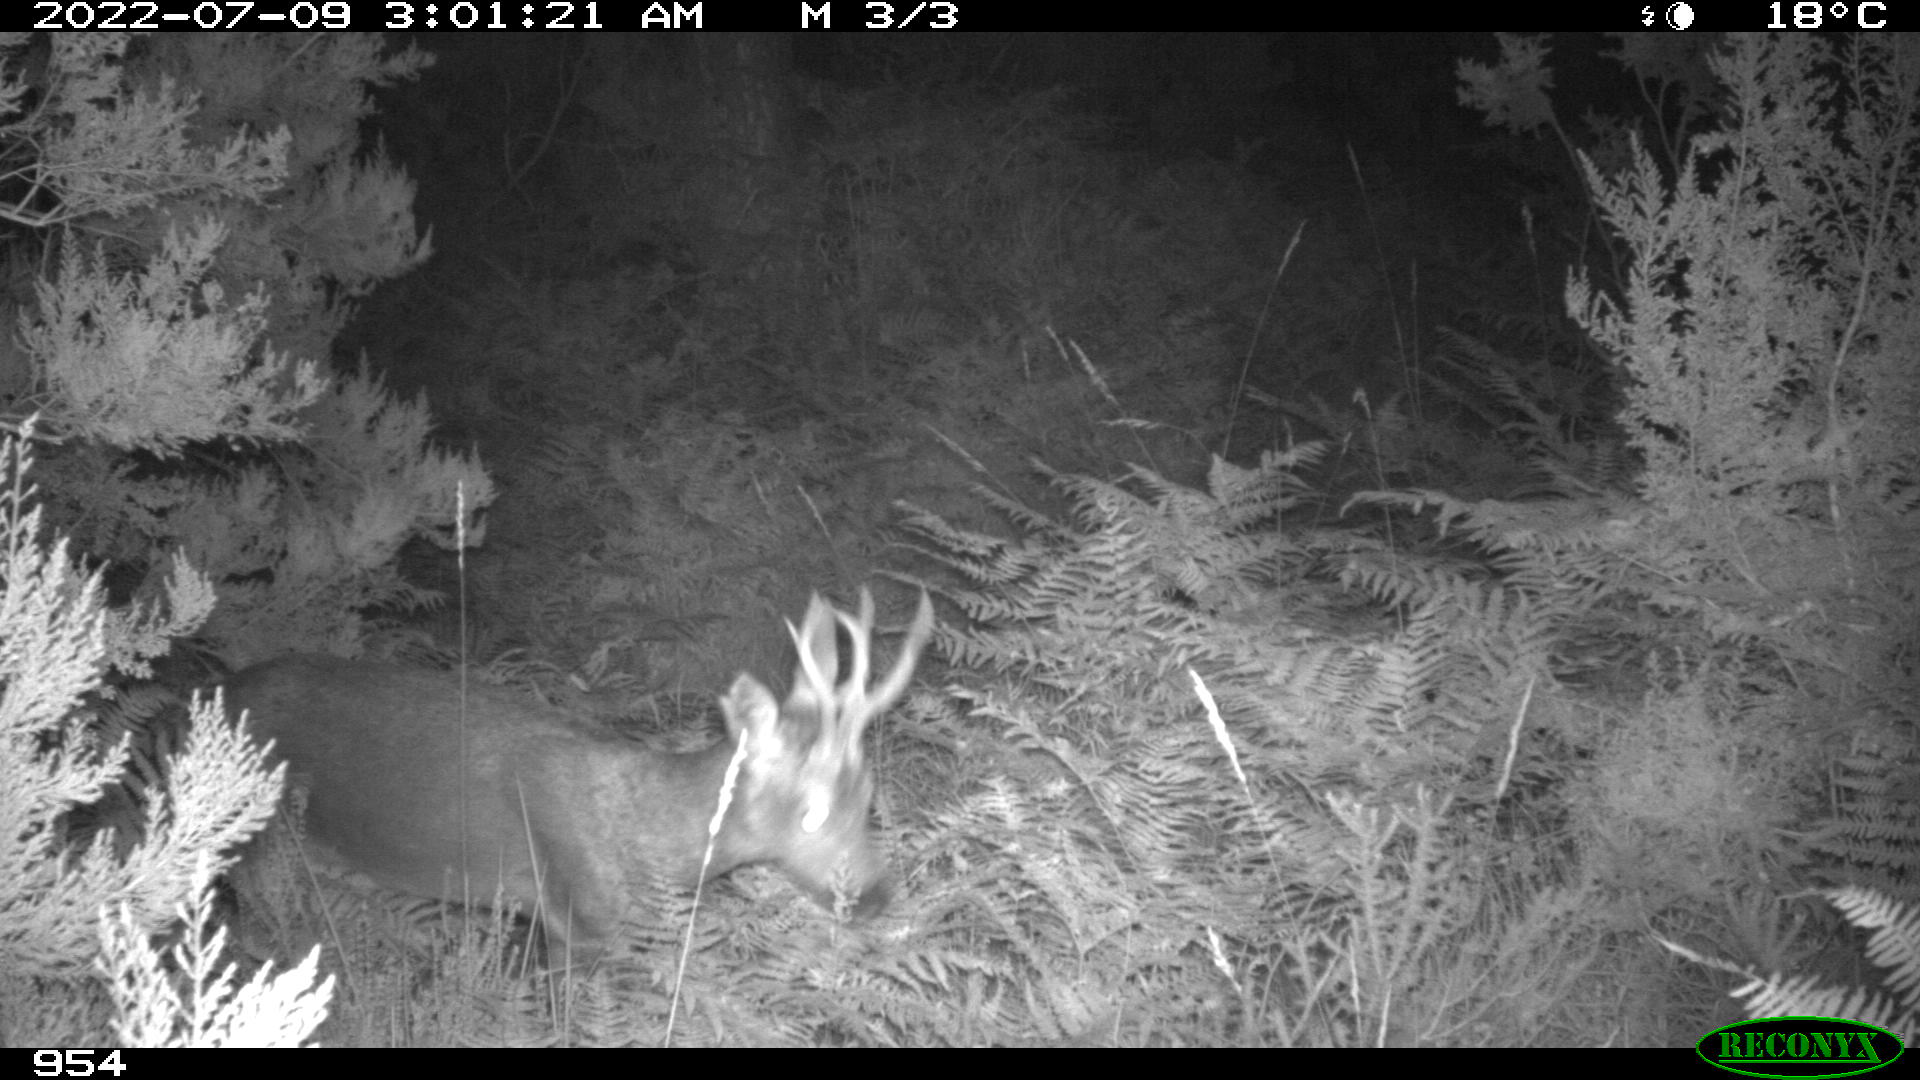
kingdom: Animalia
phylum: Chordata
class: Mammalia
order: Artiodactyla
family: Cervidae
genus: Capreolus
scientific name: Capreolus capreolus
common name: Western roe deer
